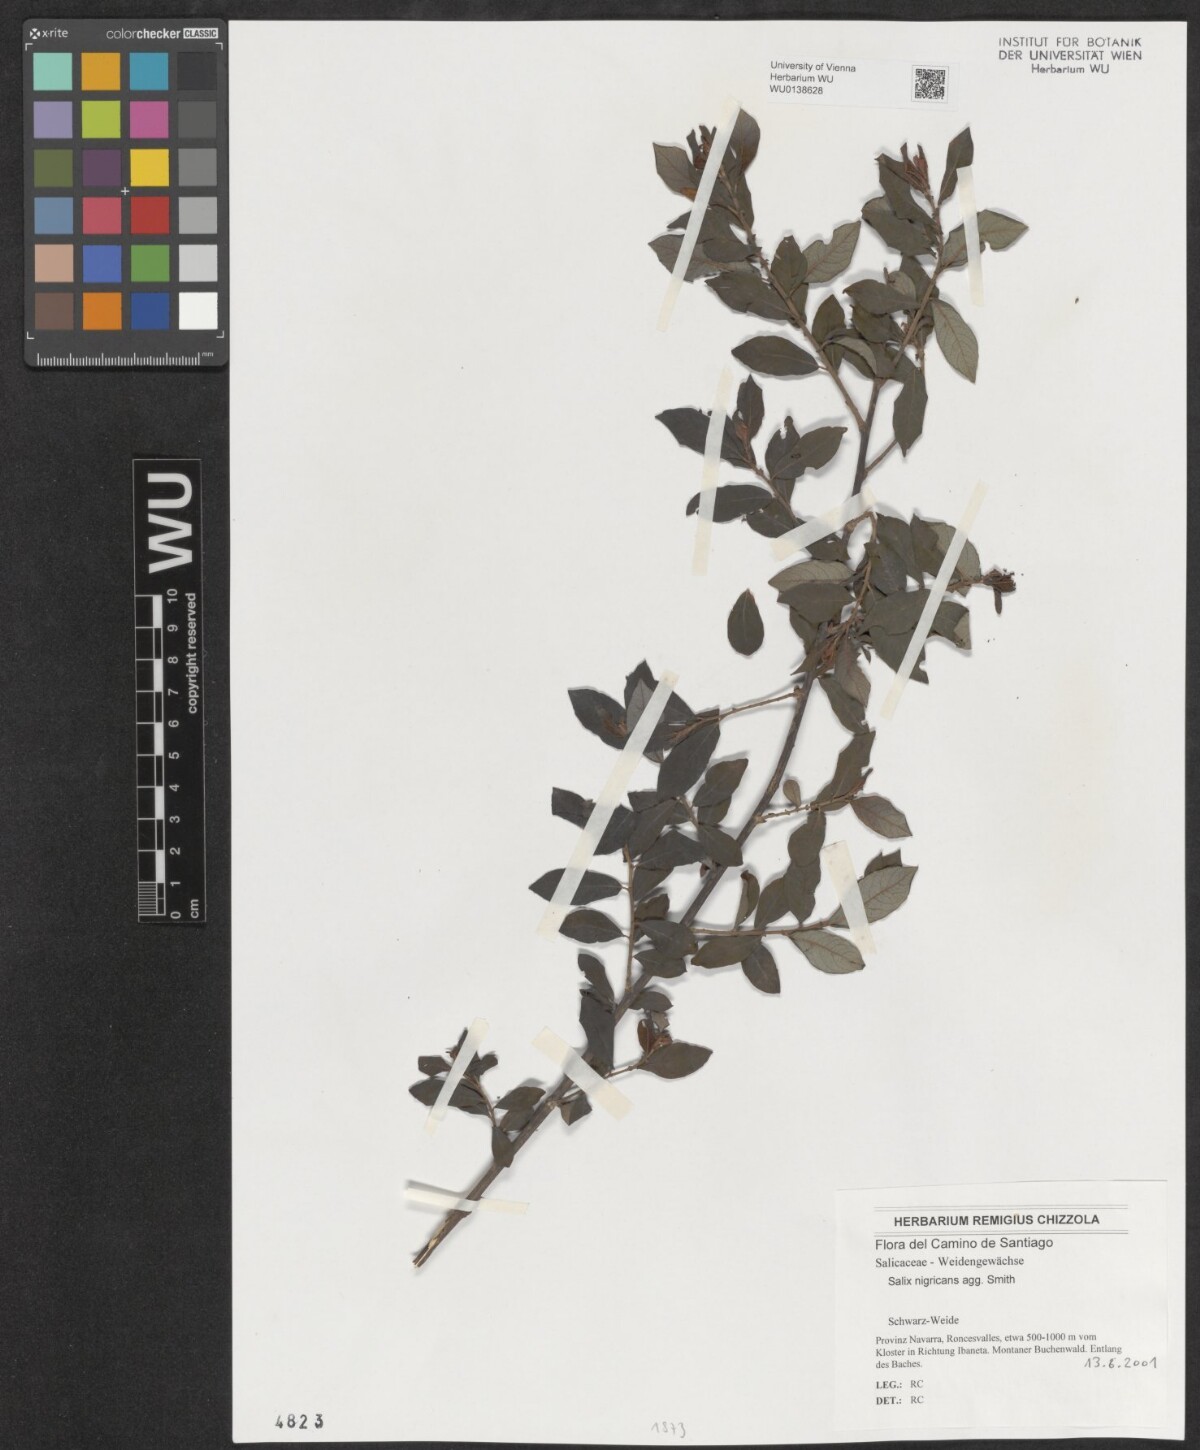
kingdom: Plantae
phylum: Tracheophyta
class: Magnoliopsida
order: Malpighiales
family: Salicaceae
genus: Salix
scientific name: Salix myrsinifolia
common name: Dark-leaved willow
